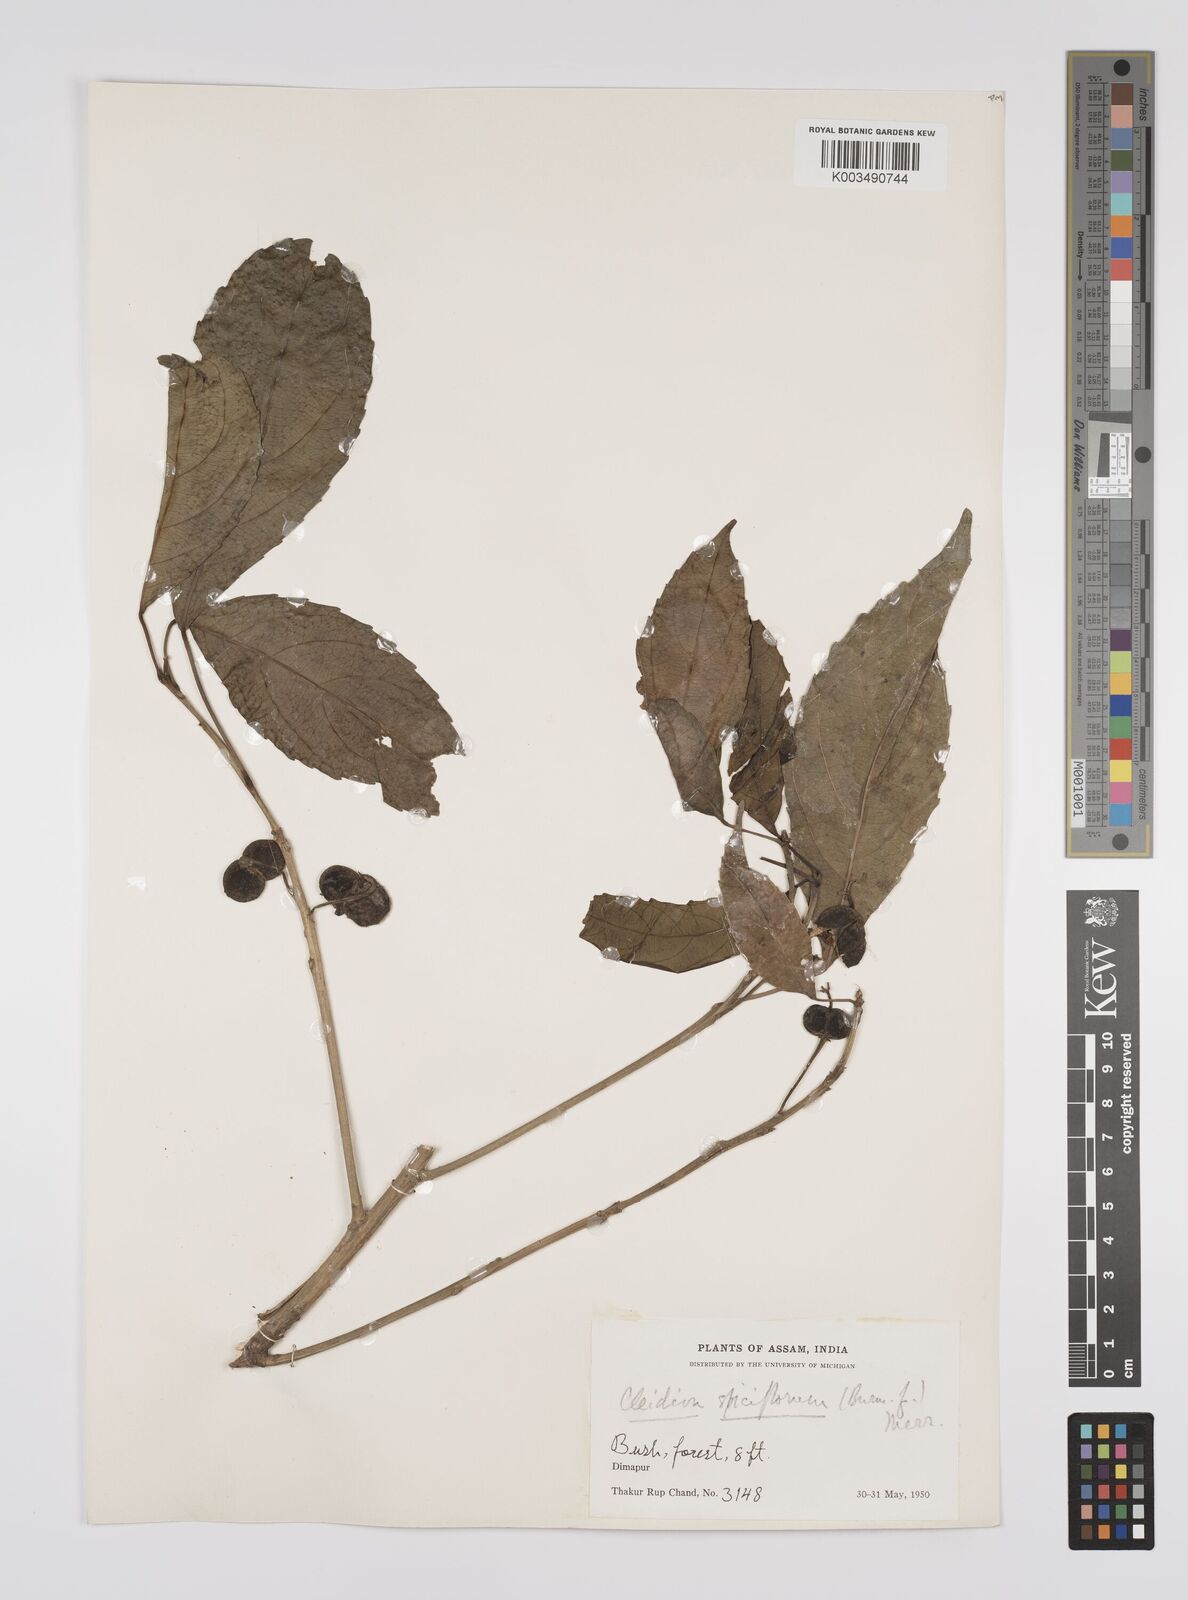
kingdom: Plantae
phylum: Tracheophyta
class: Magnoliopsida
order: Malpighiales
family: Euphorbiaceae
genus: Acalypha
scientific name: Acalypha spiciflora
